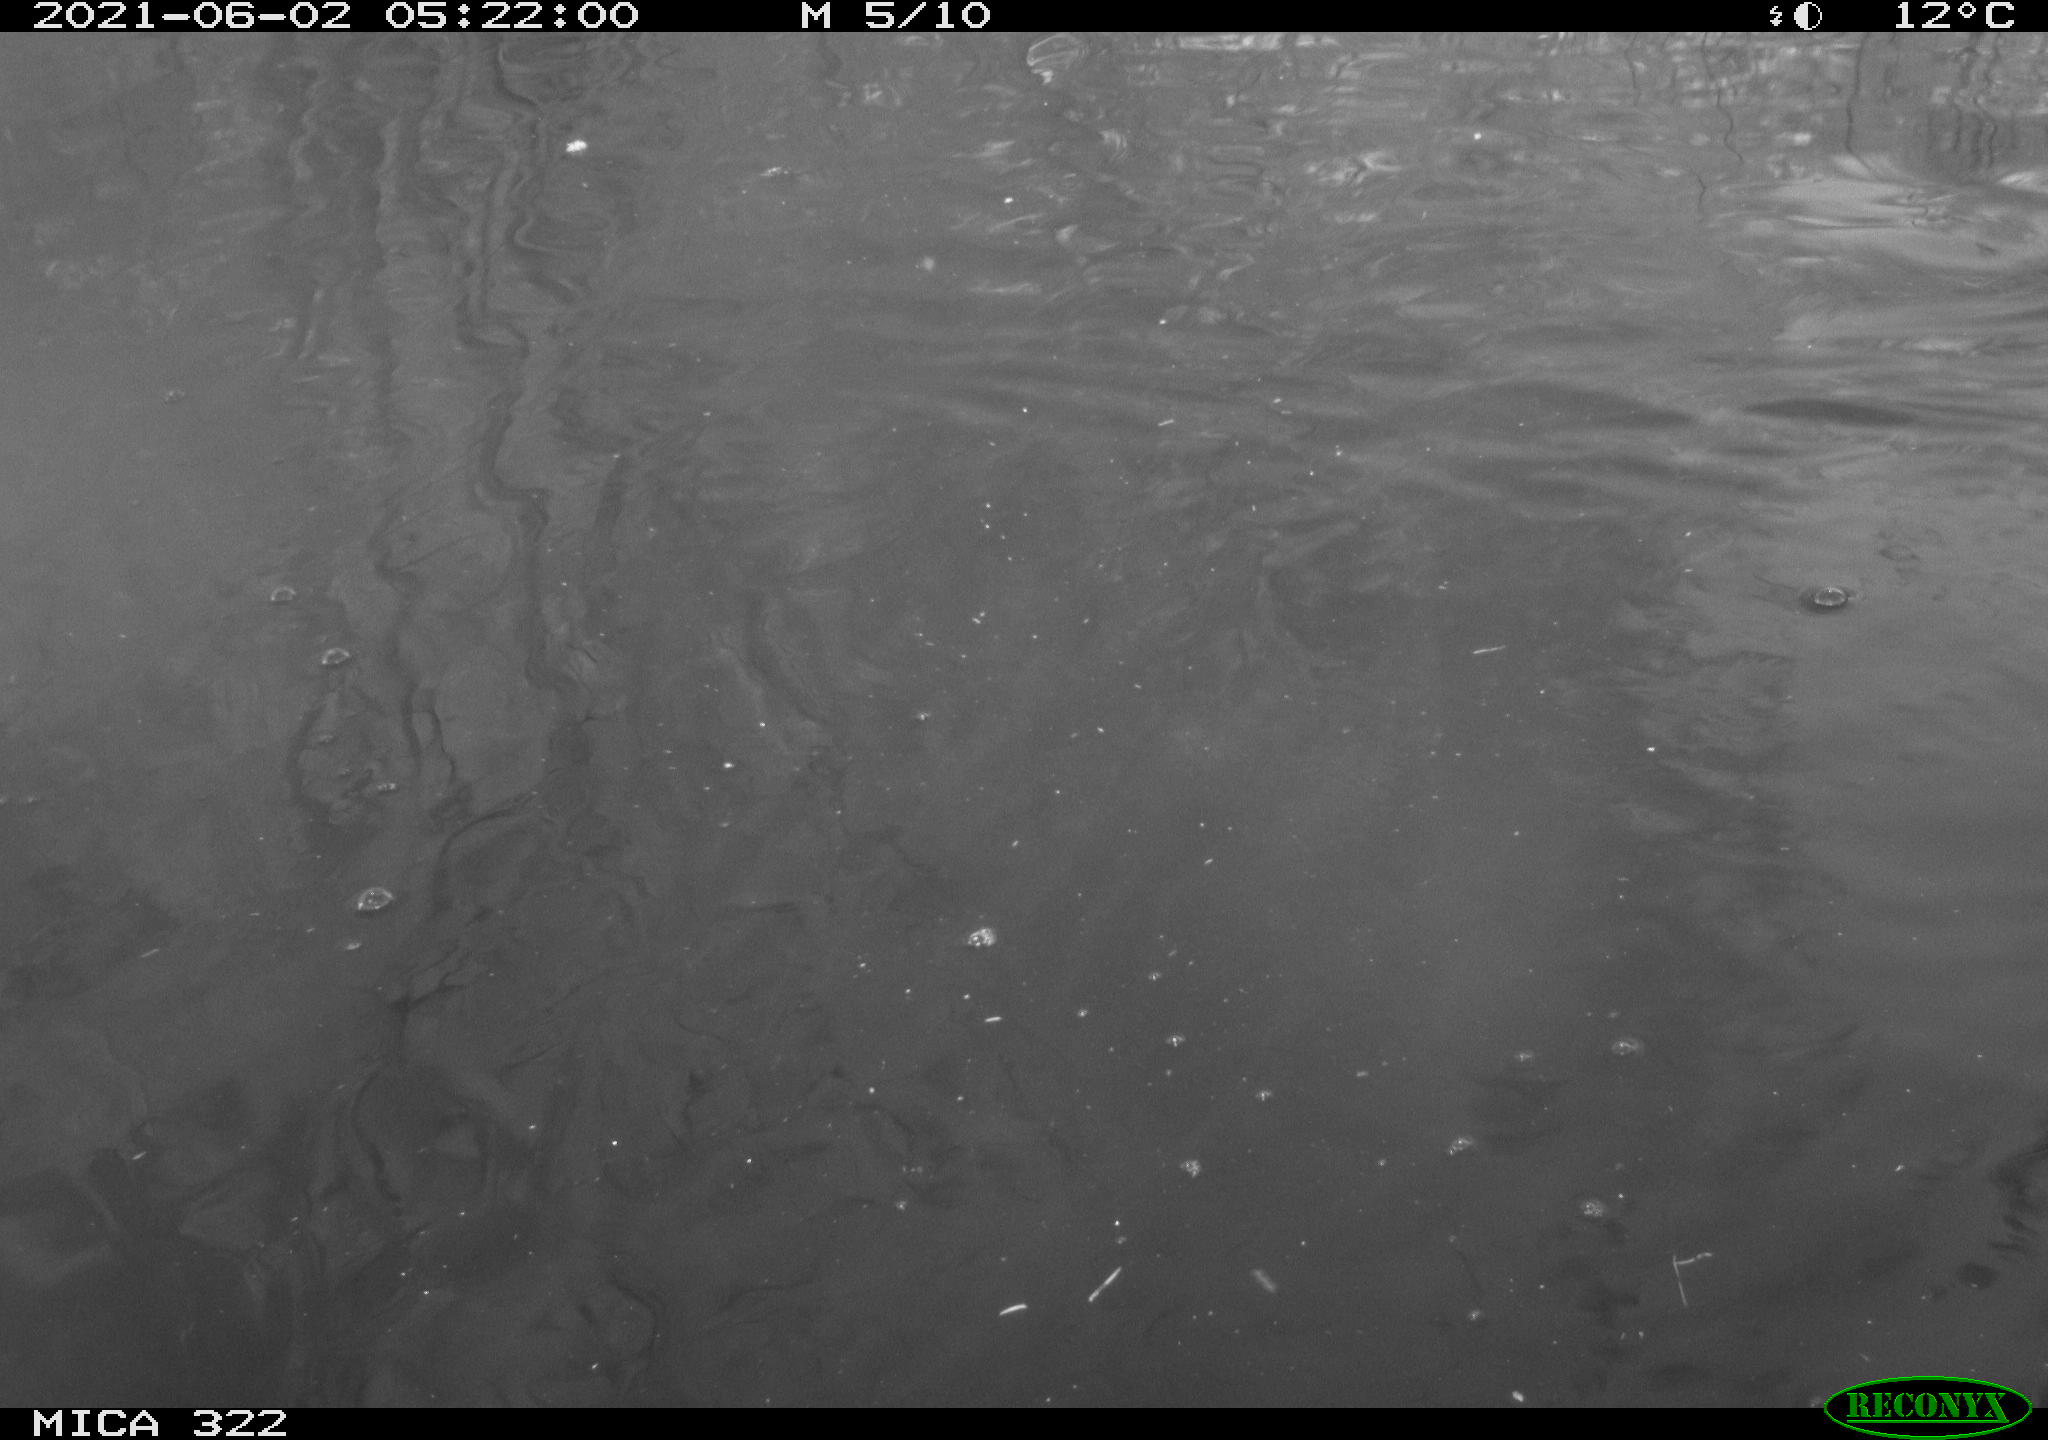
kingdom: Animalia
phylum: Chordata
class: Aves
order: Anseriformes
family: Anatidae
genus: Mareca
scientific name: Mareca strepera
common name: Gadwall
